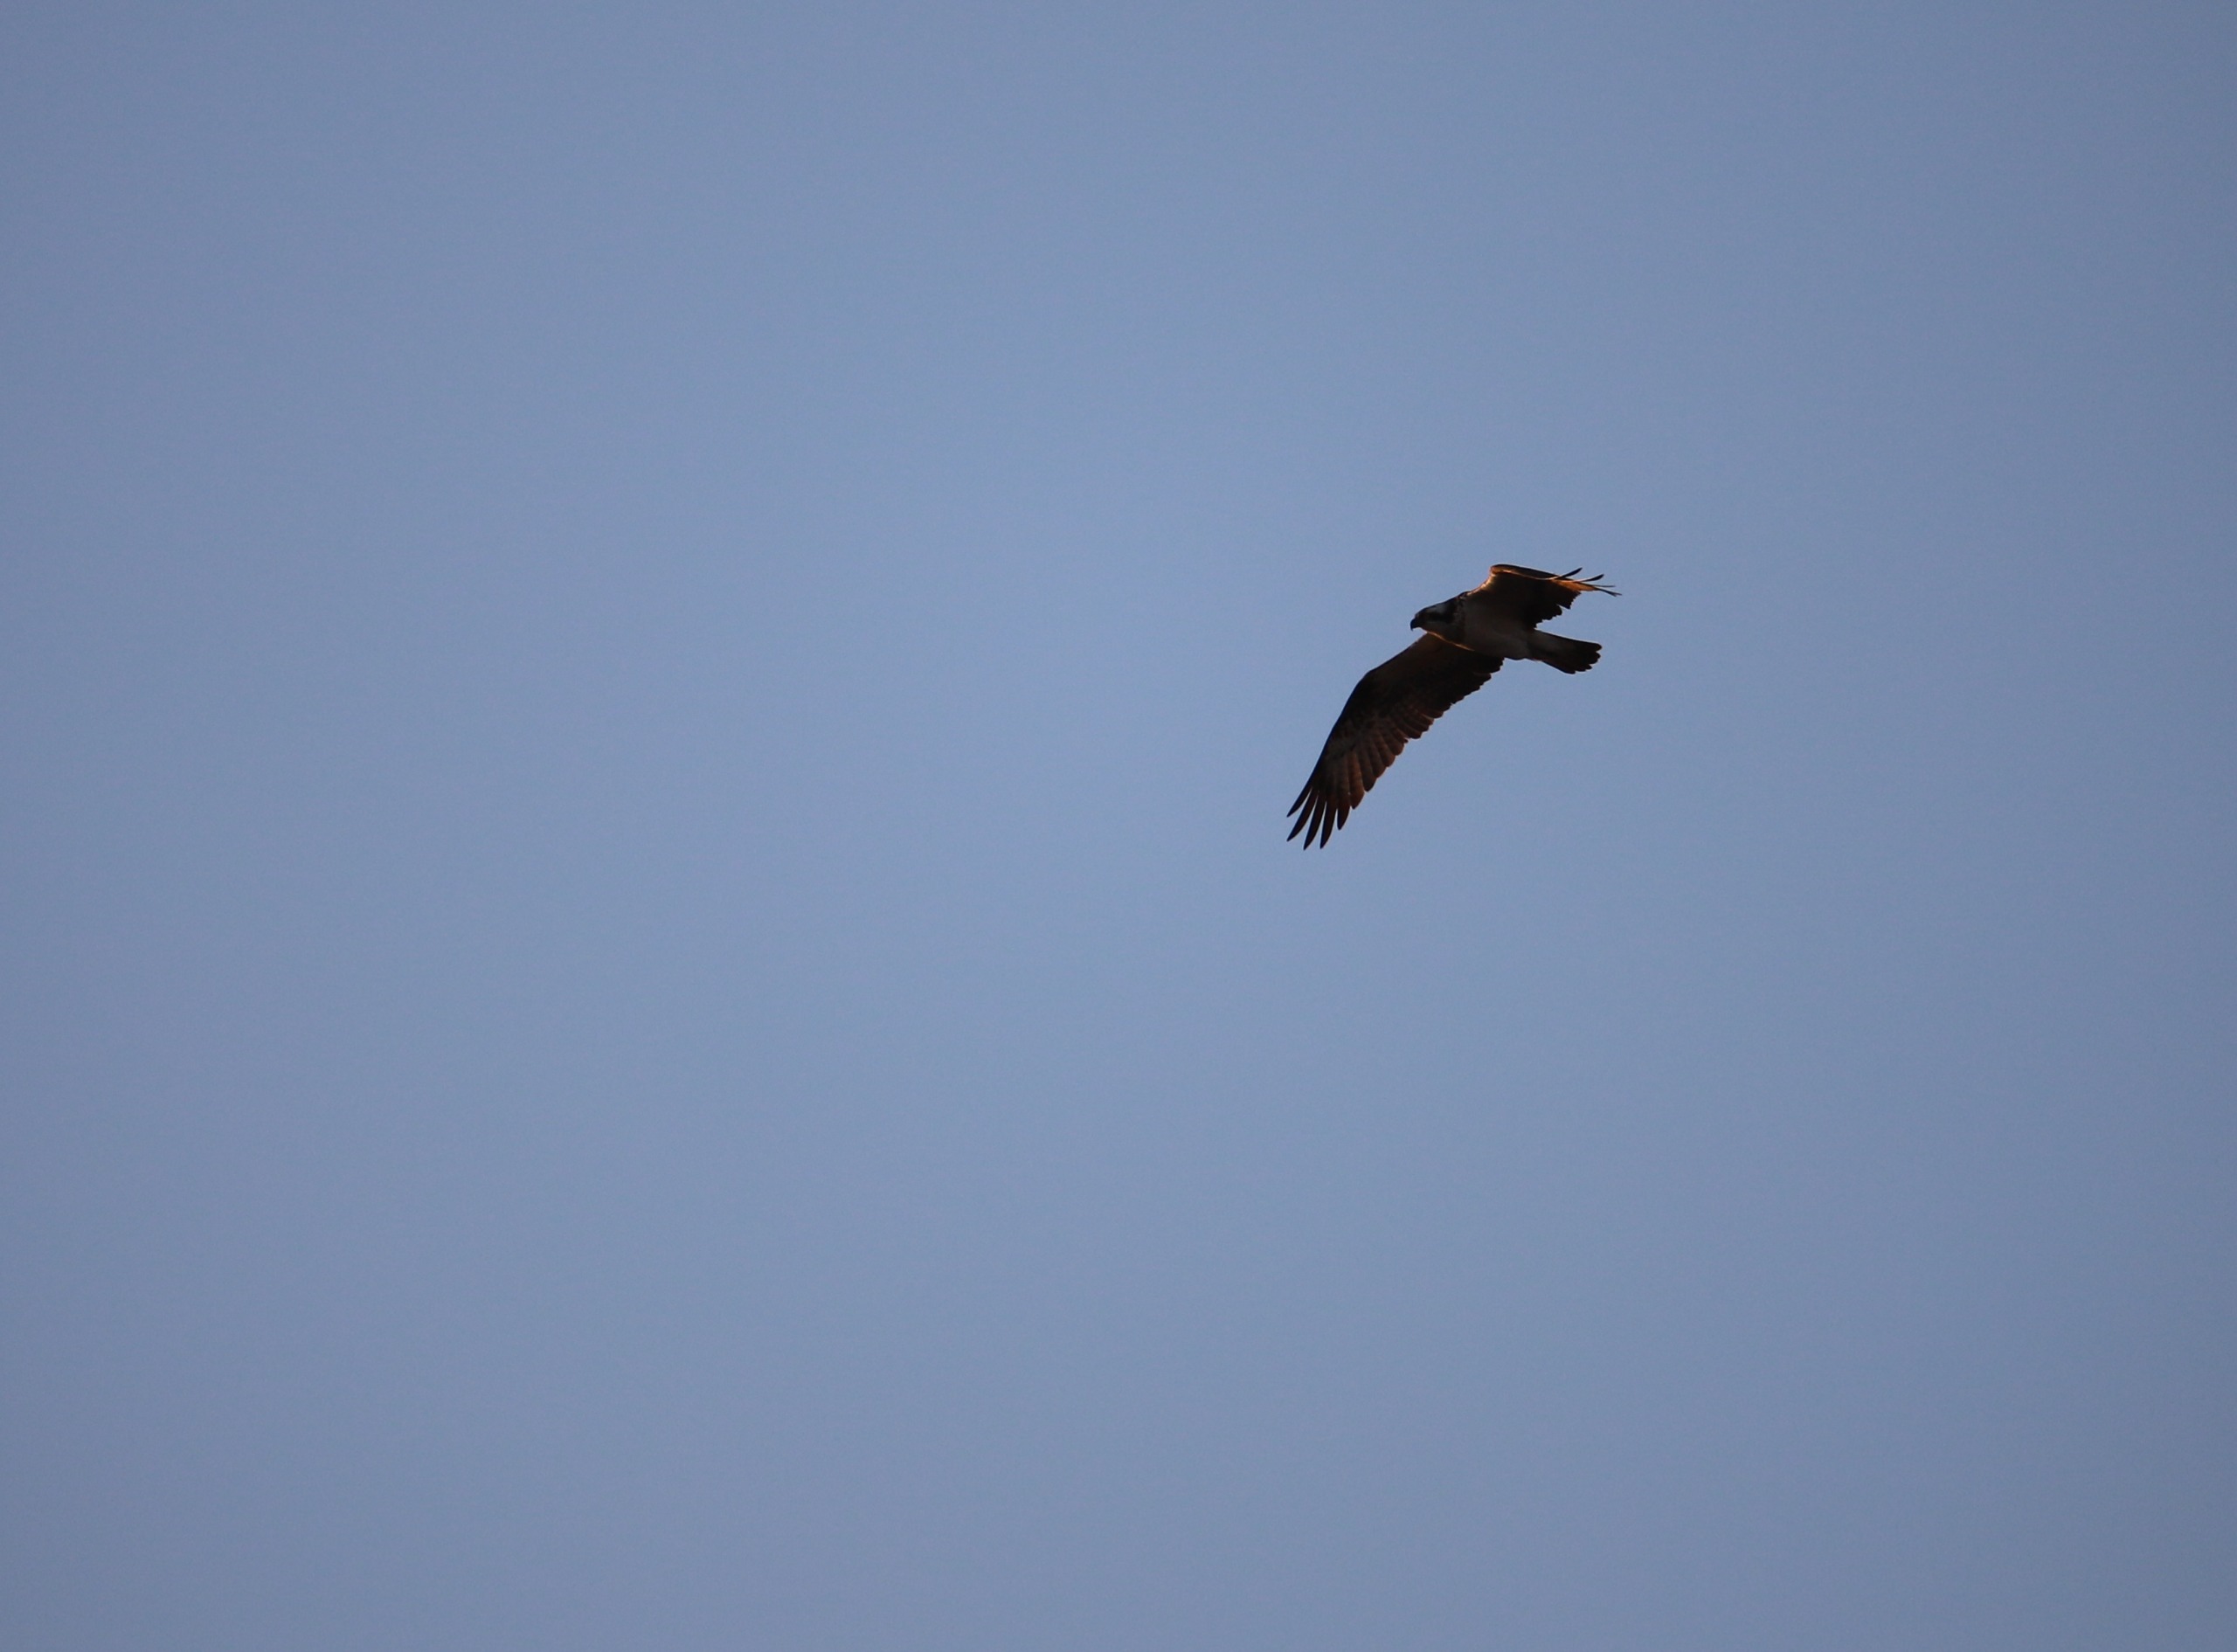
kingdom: Animalia
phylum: Chordata
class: Aves
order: Accipitriformes
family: Pandionidae
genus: Pandion
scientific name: Pandion haliaetus
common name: Fiskeørn
